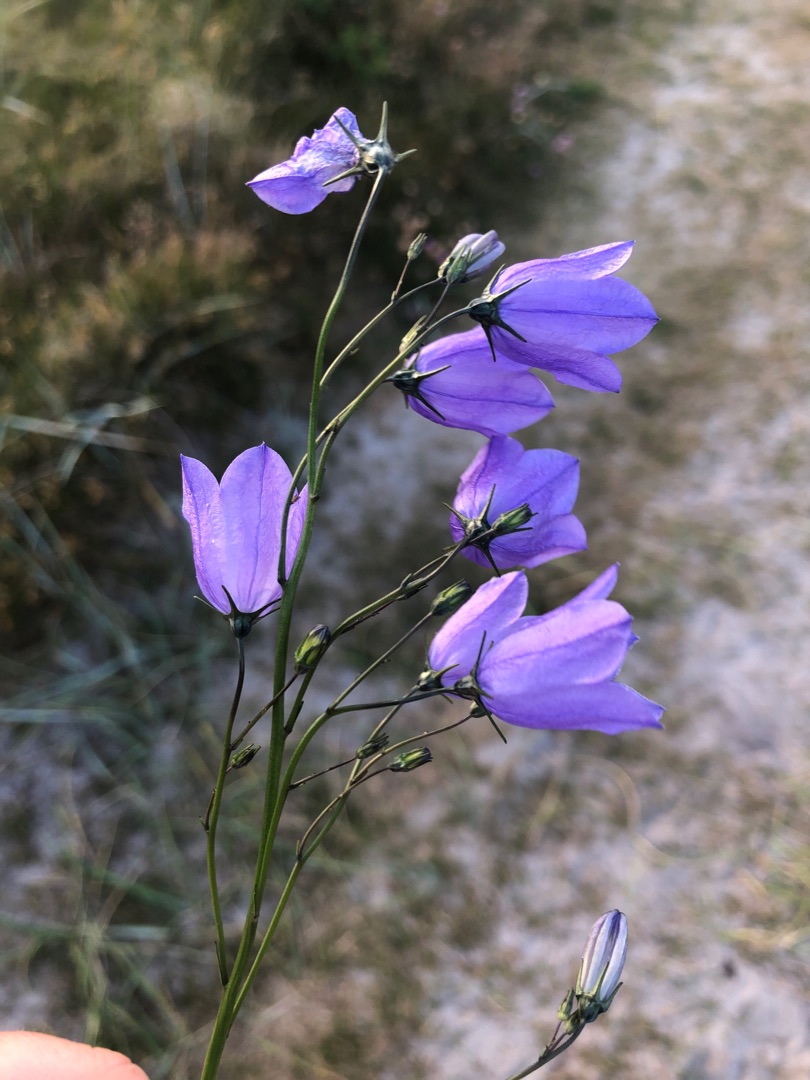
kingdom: Plantae
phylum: Tracheophyta
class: Magnoliopsida
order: Asterales
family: Campanulaceae
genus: Campanula
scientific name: Campanula rotundifolia
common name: Liden klokke
